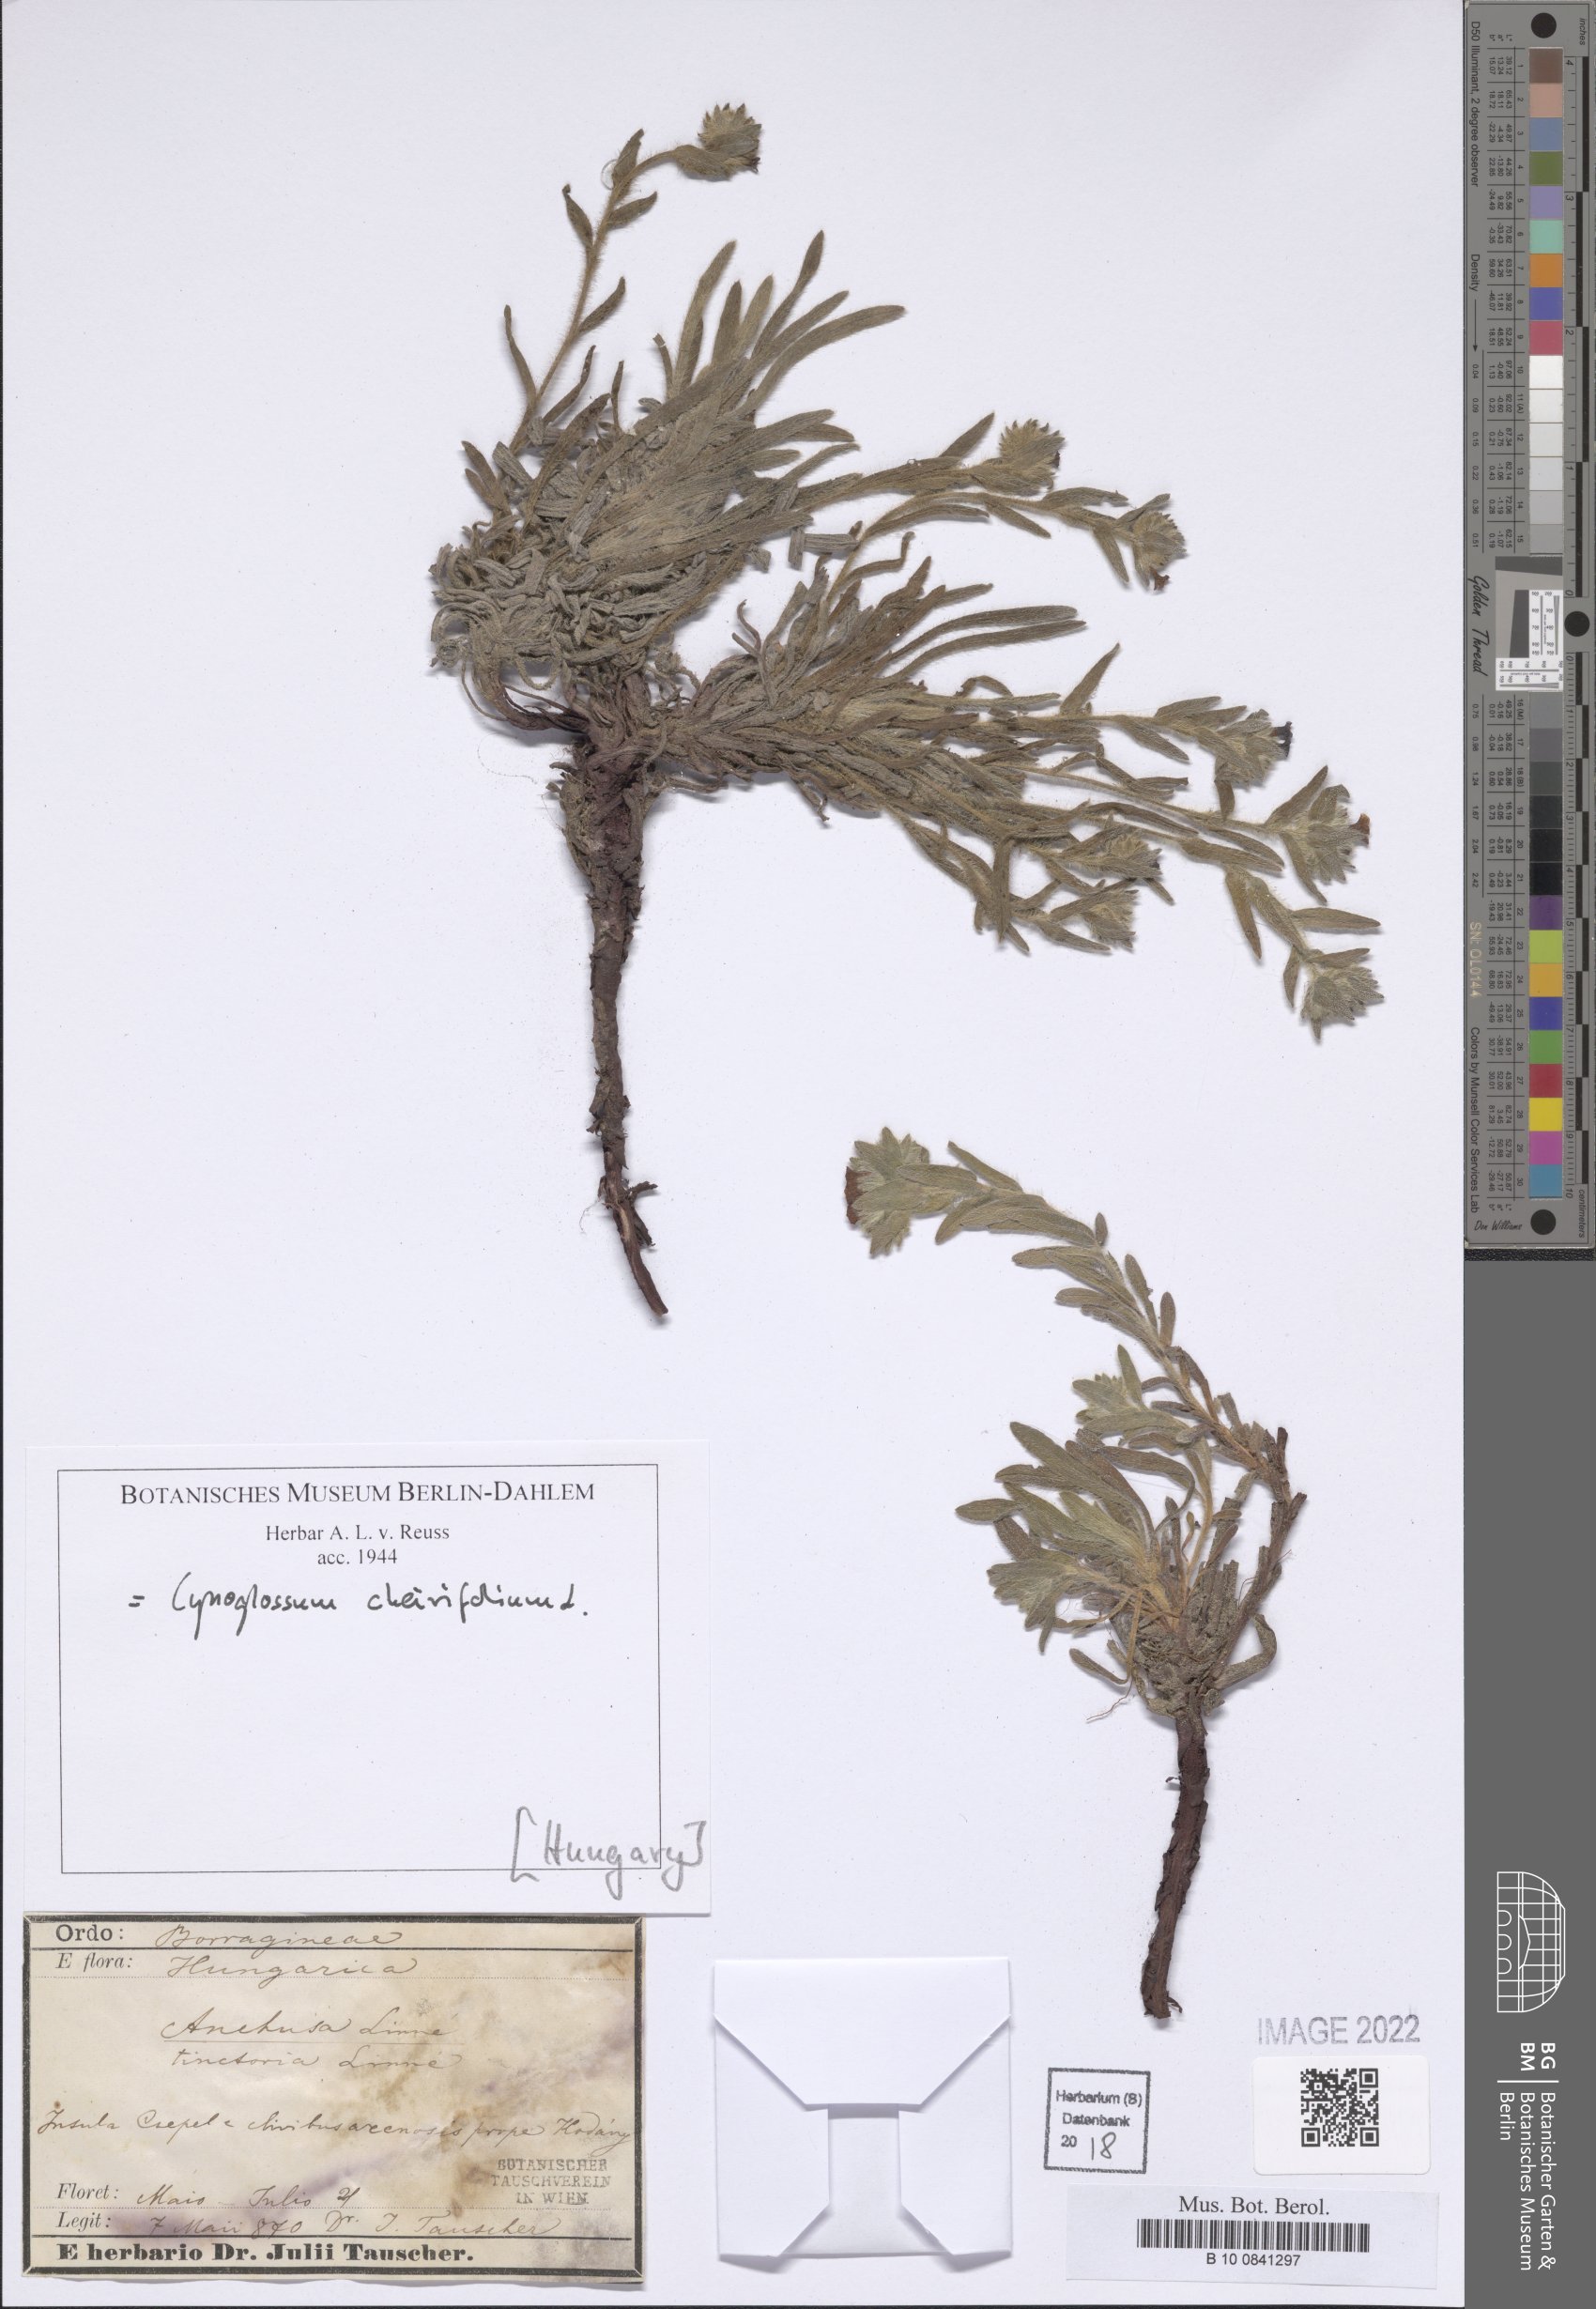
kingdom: Plantae
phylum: Tracheophyta
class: Magnoliopsida
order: Boraginales
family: Boraginaceae
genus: Pardoglossum
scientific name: Pardoglossum cheirifolium
